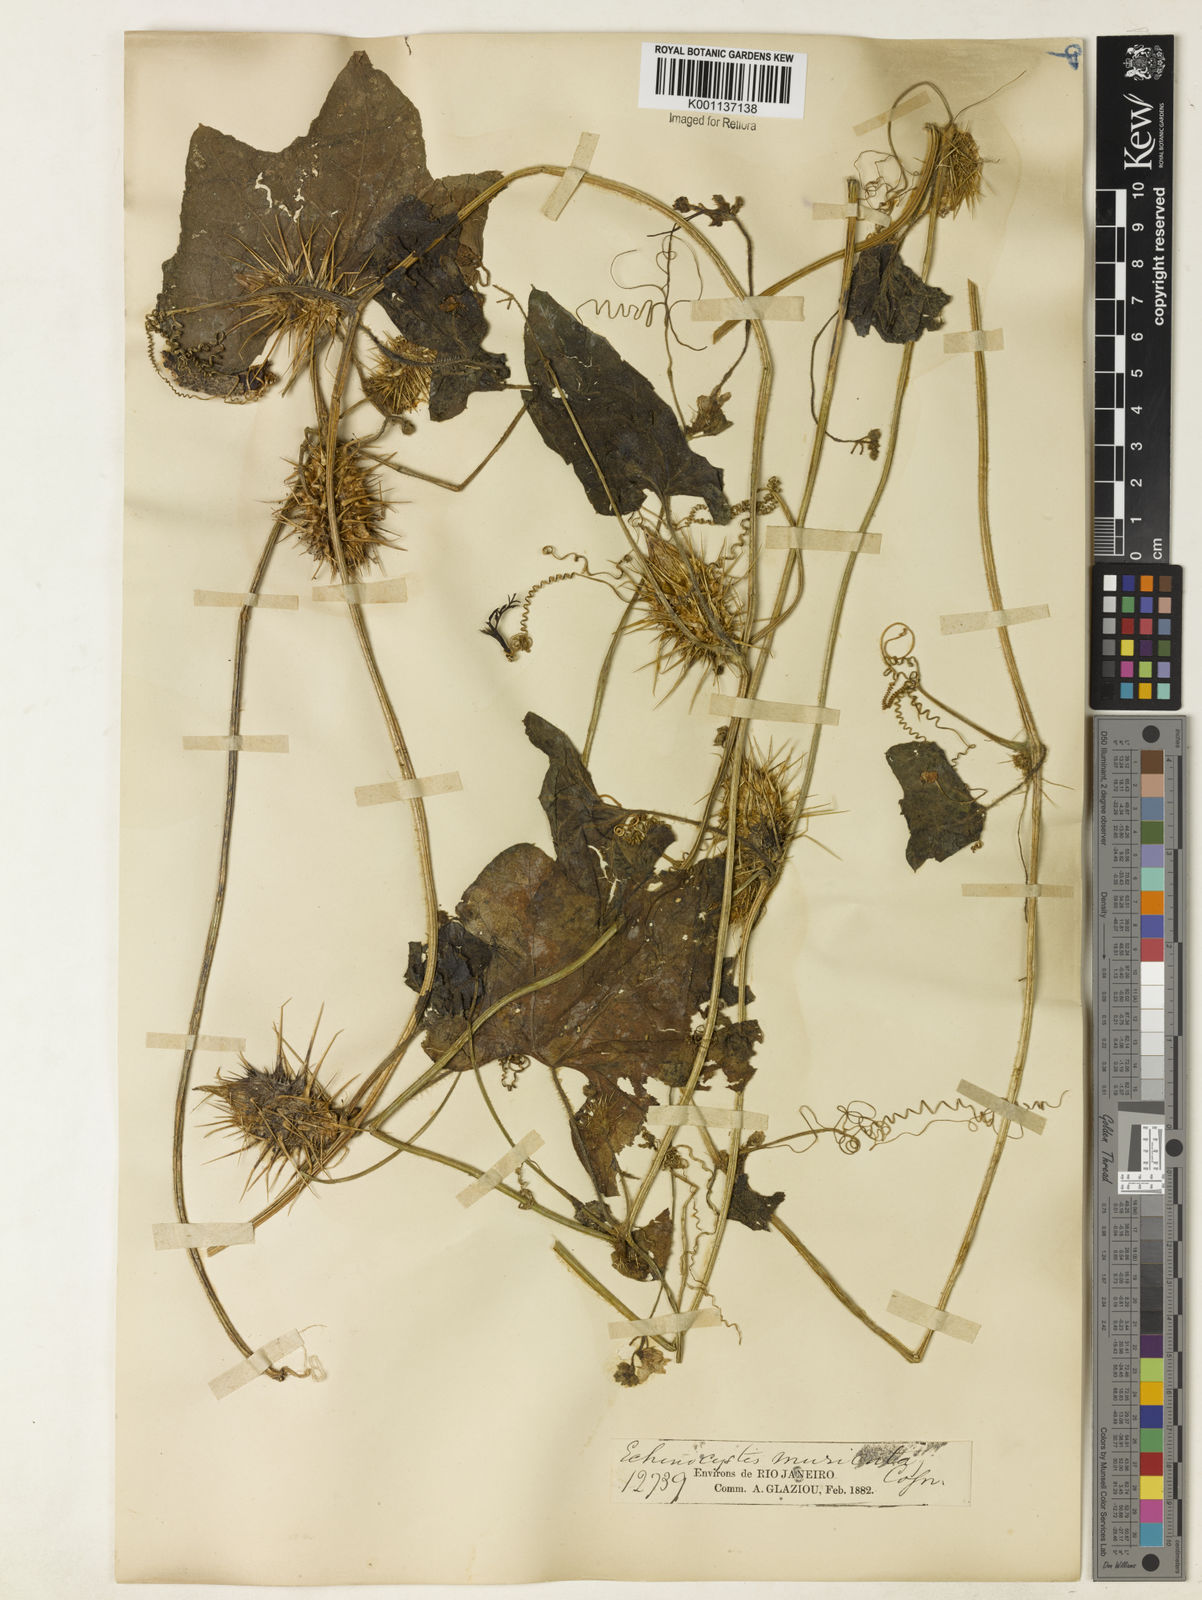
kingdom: Plantae
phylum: Tracheophyta
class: Magnoliopsida
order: Cucurbitales
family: Cucurbitaceae
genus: Echinopepon
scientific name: Echinopepon racemosus
